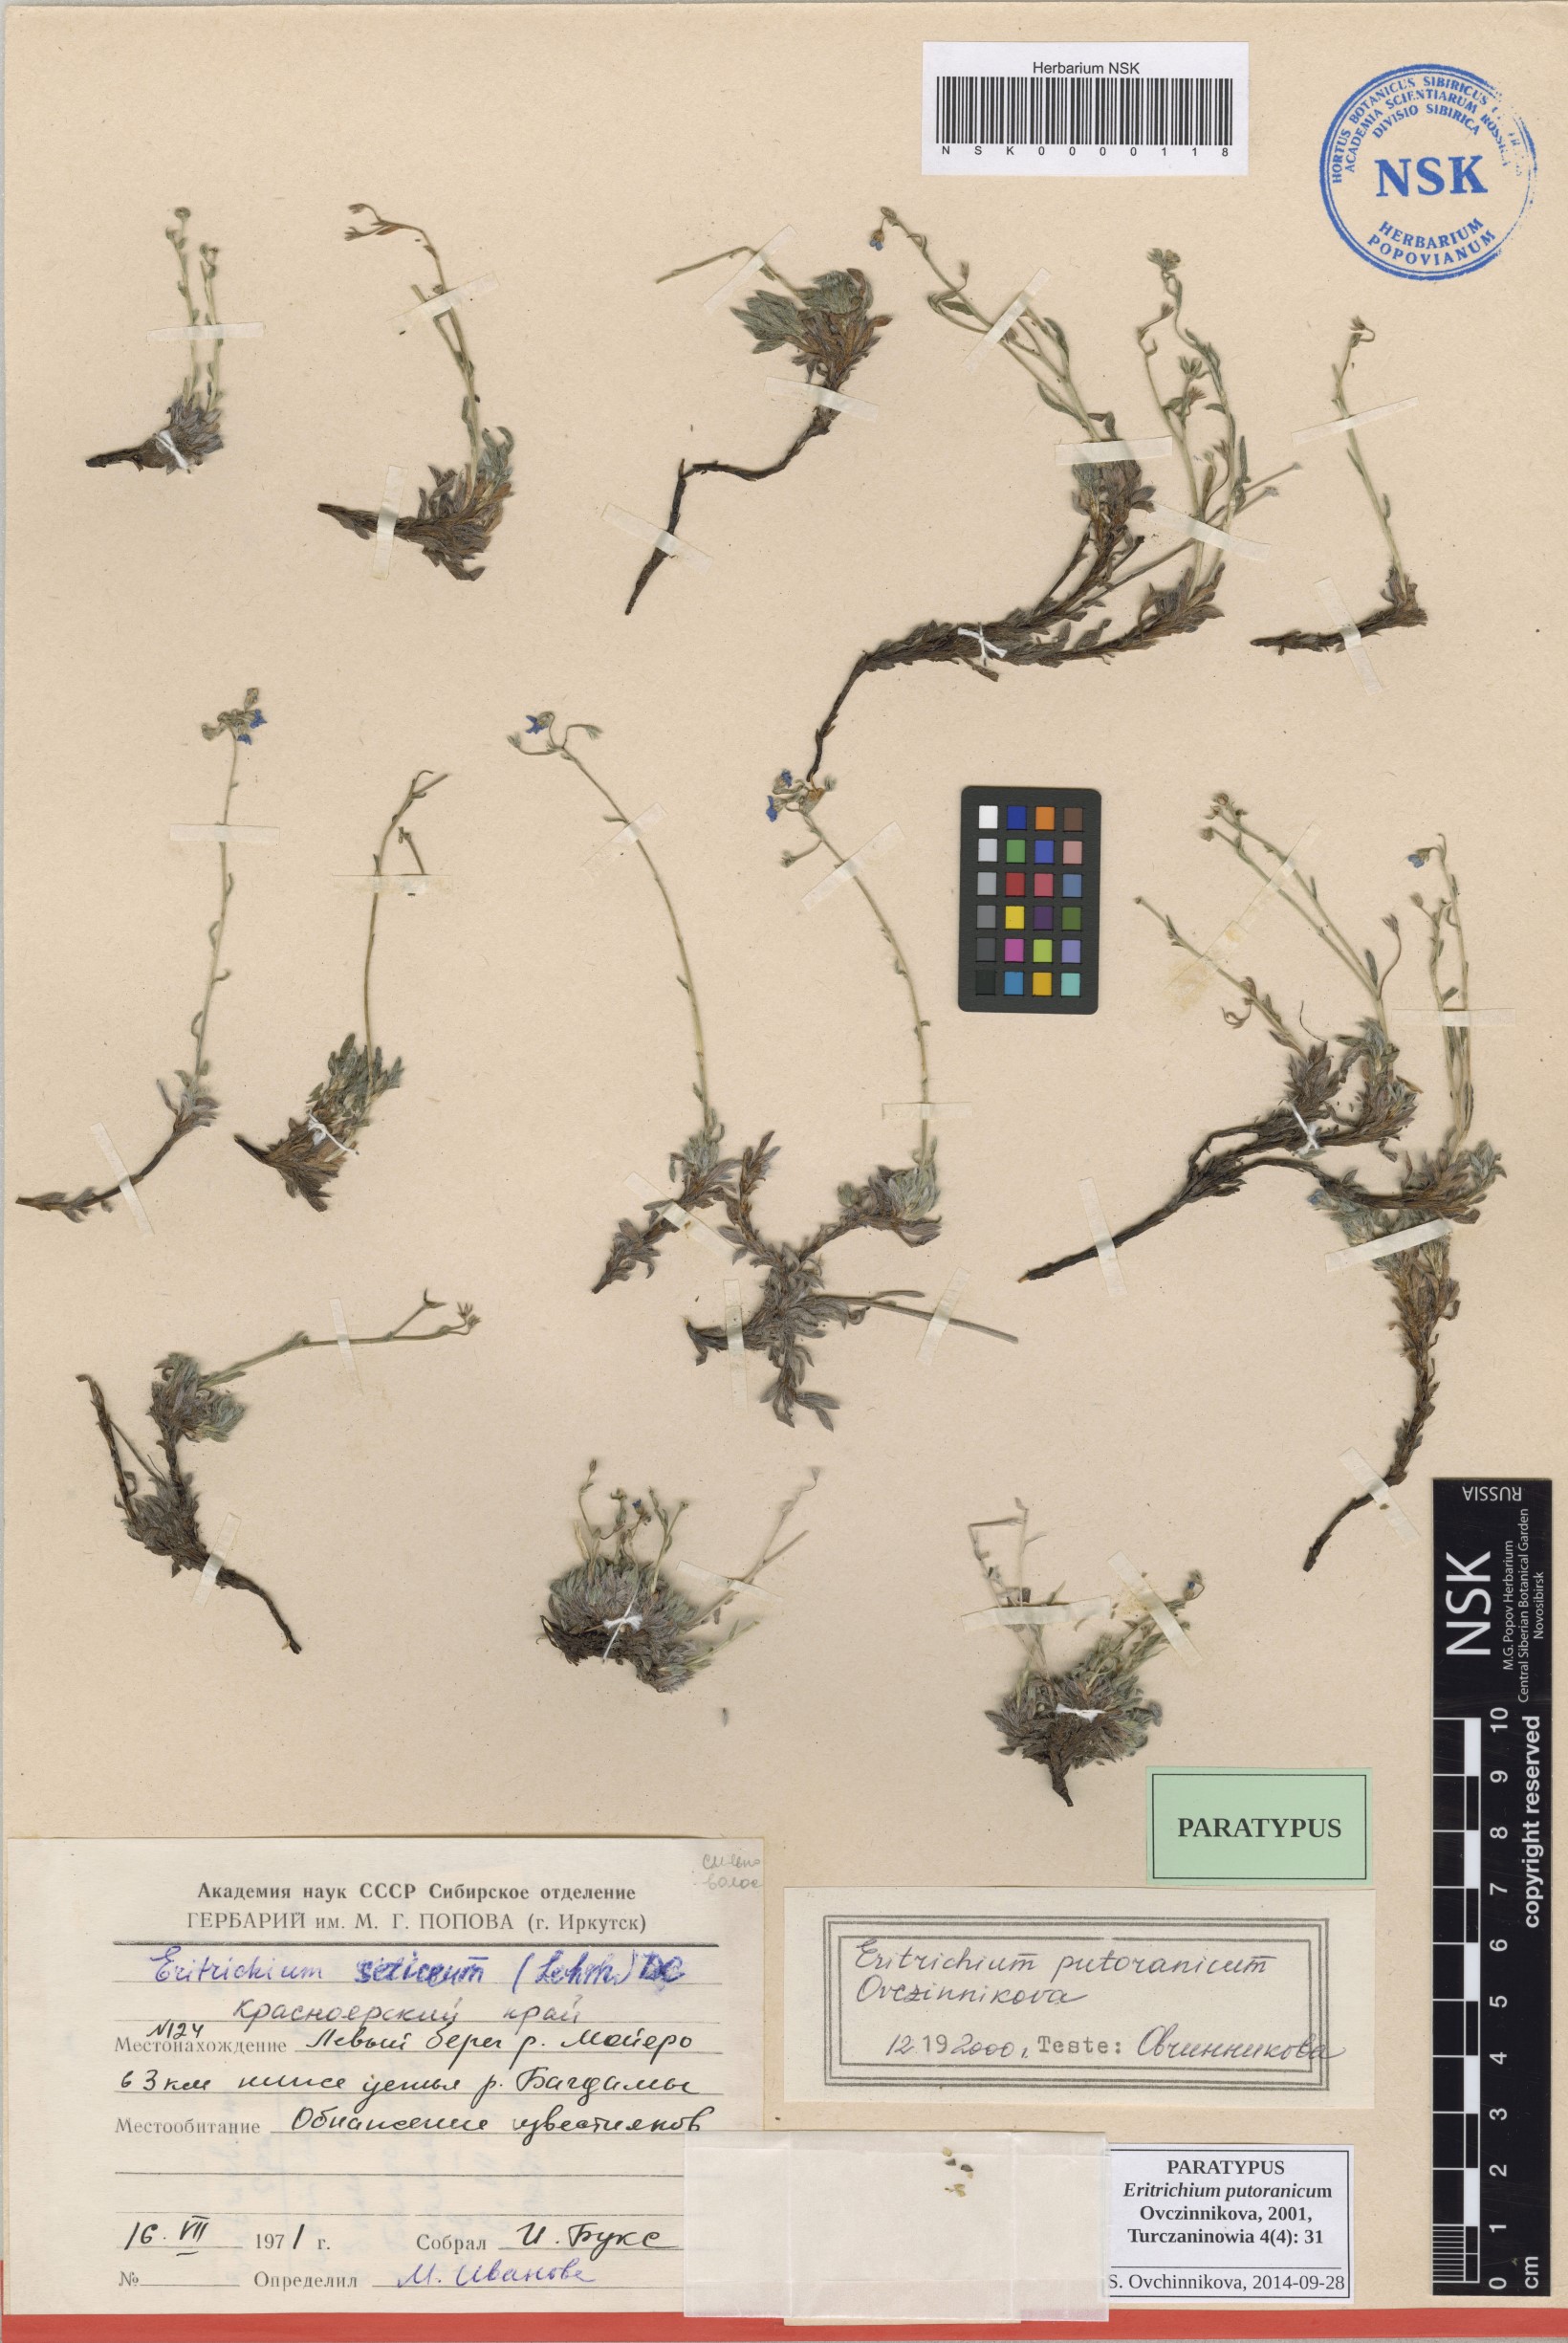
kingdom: Plantae
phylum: Tracheophyta
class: Magnoliopsida
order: Boraginales
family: Boraginaceae
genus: Eritrichium
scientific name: Eritrichium putoranicum
